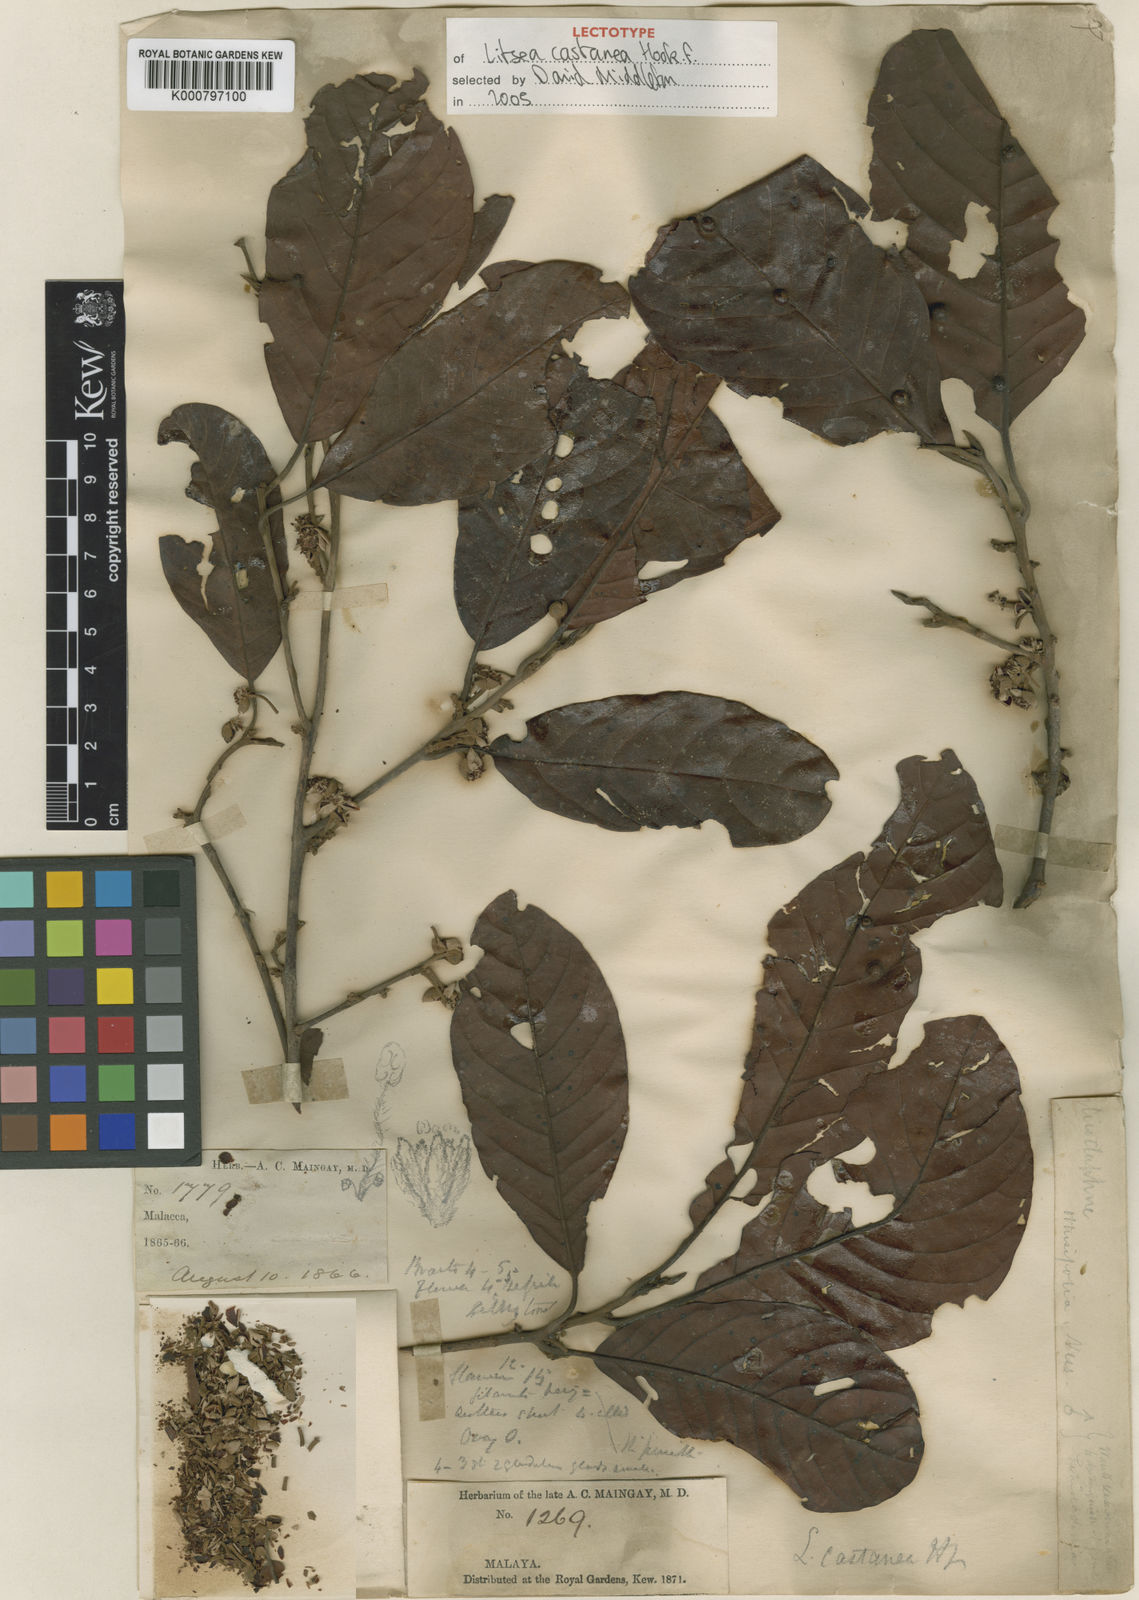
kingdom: Plantae
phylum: Tracheophyta
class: Magnoliopsida
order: Laurales
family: Lauraceae
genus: Litsea
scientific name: Litsea castanea
